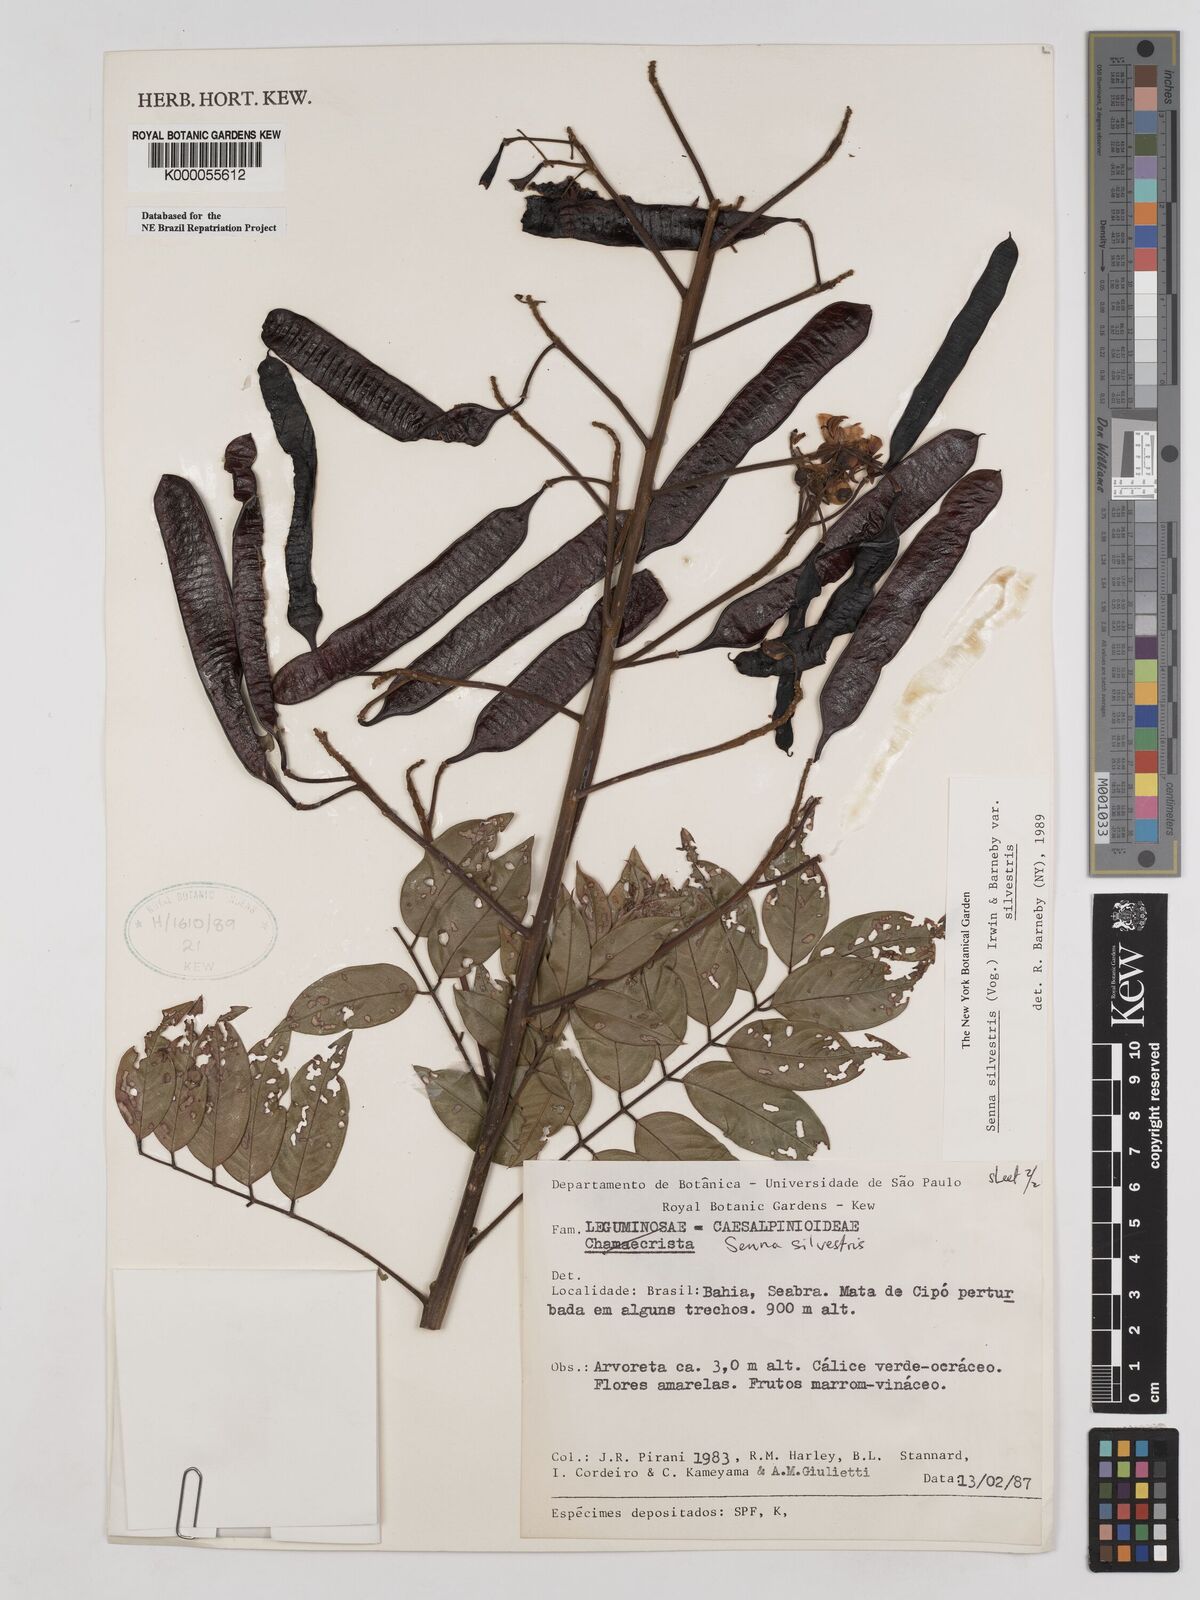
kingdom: Plantae
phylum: Tracheophyta
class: Magnoliopsida
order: Fabales
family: Fabaceae
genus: Senna
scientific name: Senna silvestris
